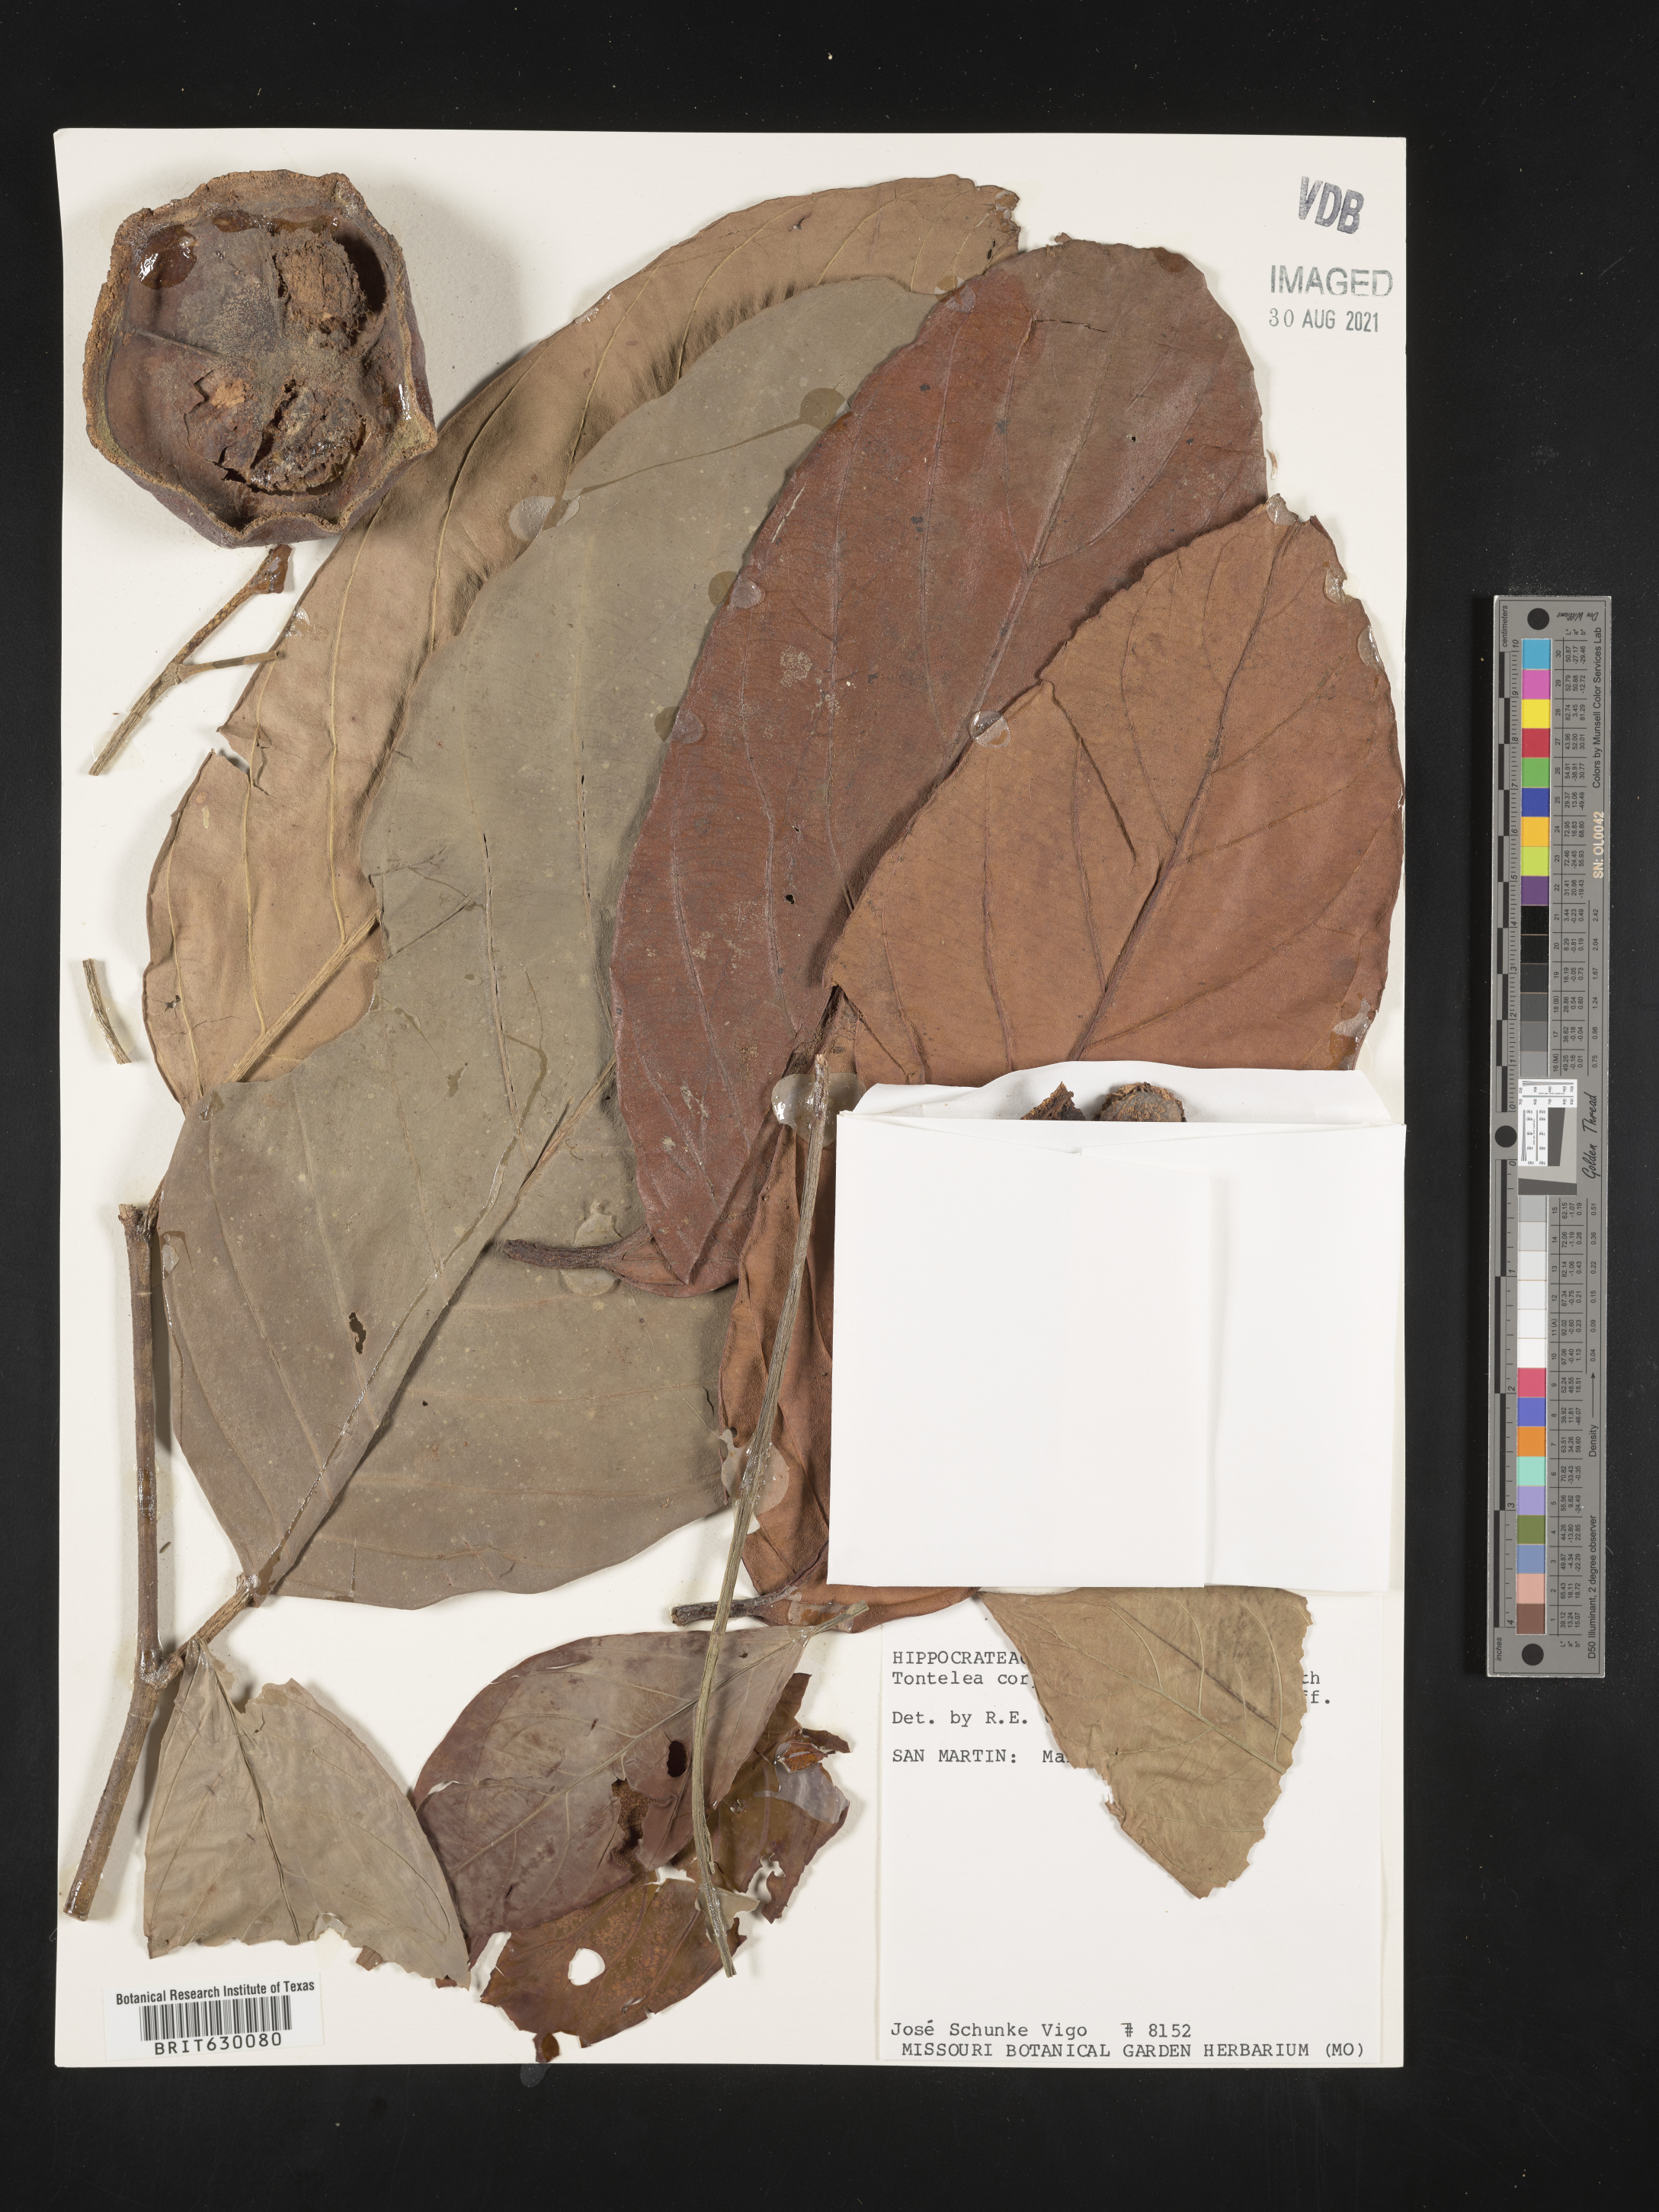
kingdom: Plantae
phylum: Tracheophyta
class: Magnoliopsida
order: Celastrales
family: Celastraceae
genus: Tontelea
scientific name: Tontelea
